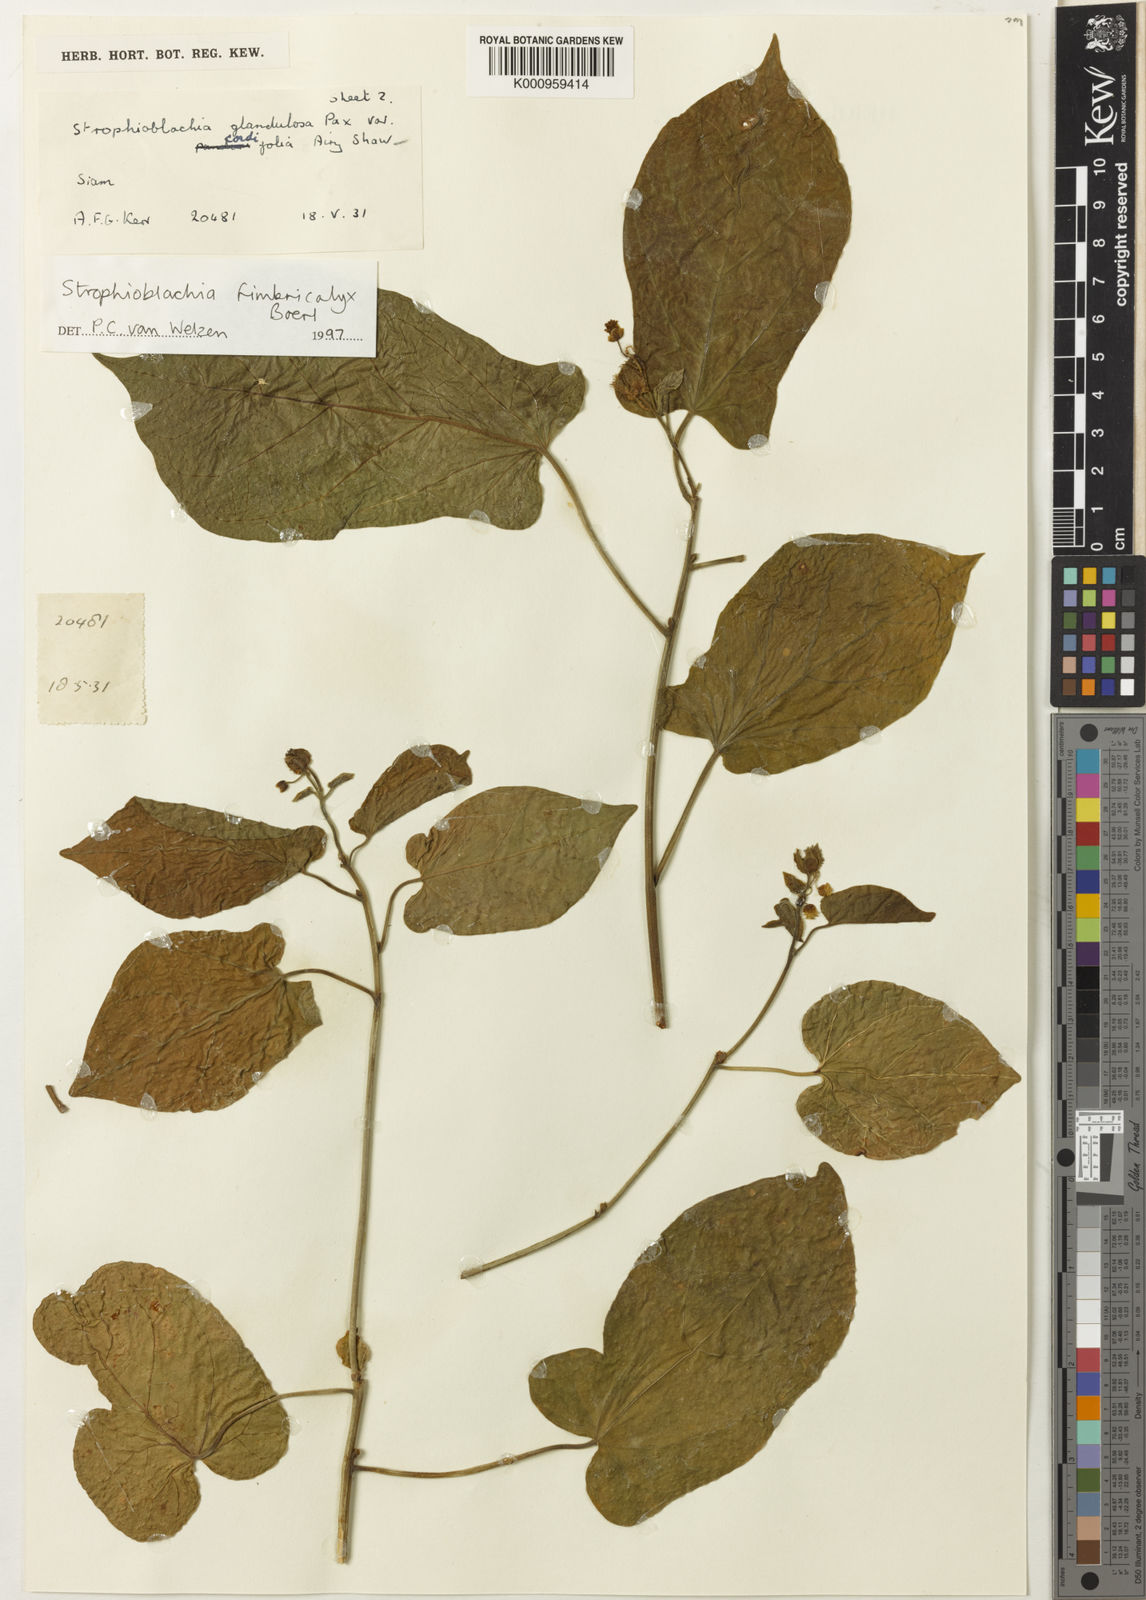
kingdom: Plantae
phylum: Tracheophyta
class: Magnoliopsida
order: Malpighiales
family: Euphorbiaceae
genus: Strophioblachia
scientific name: Strophioblachia fimbricalyx
